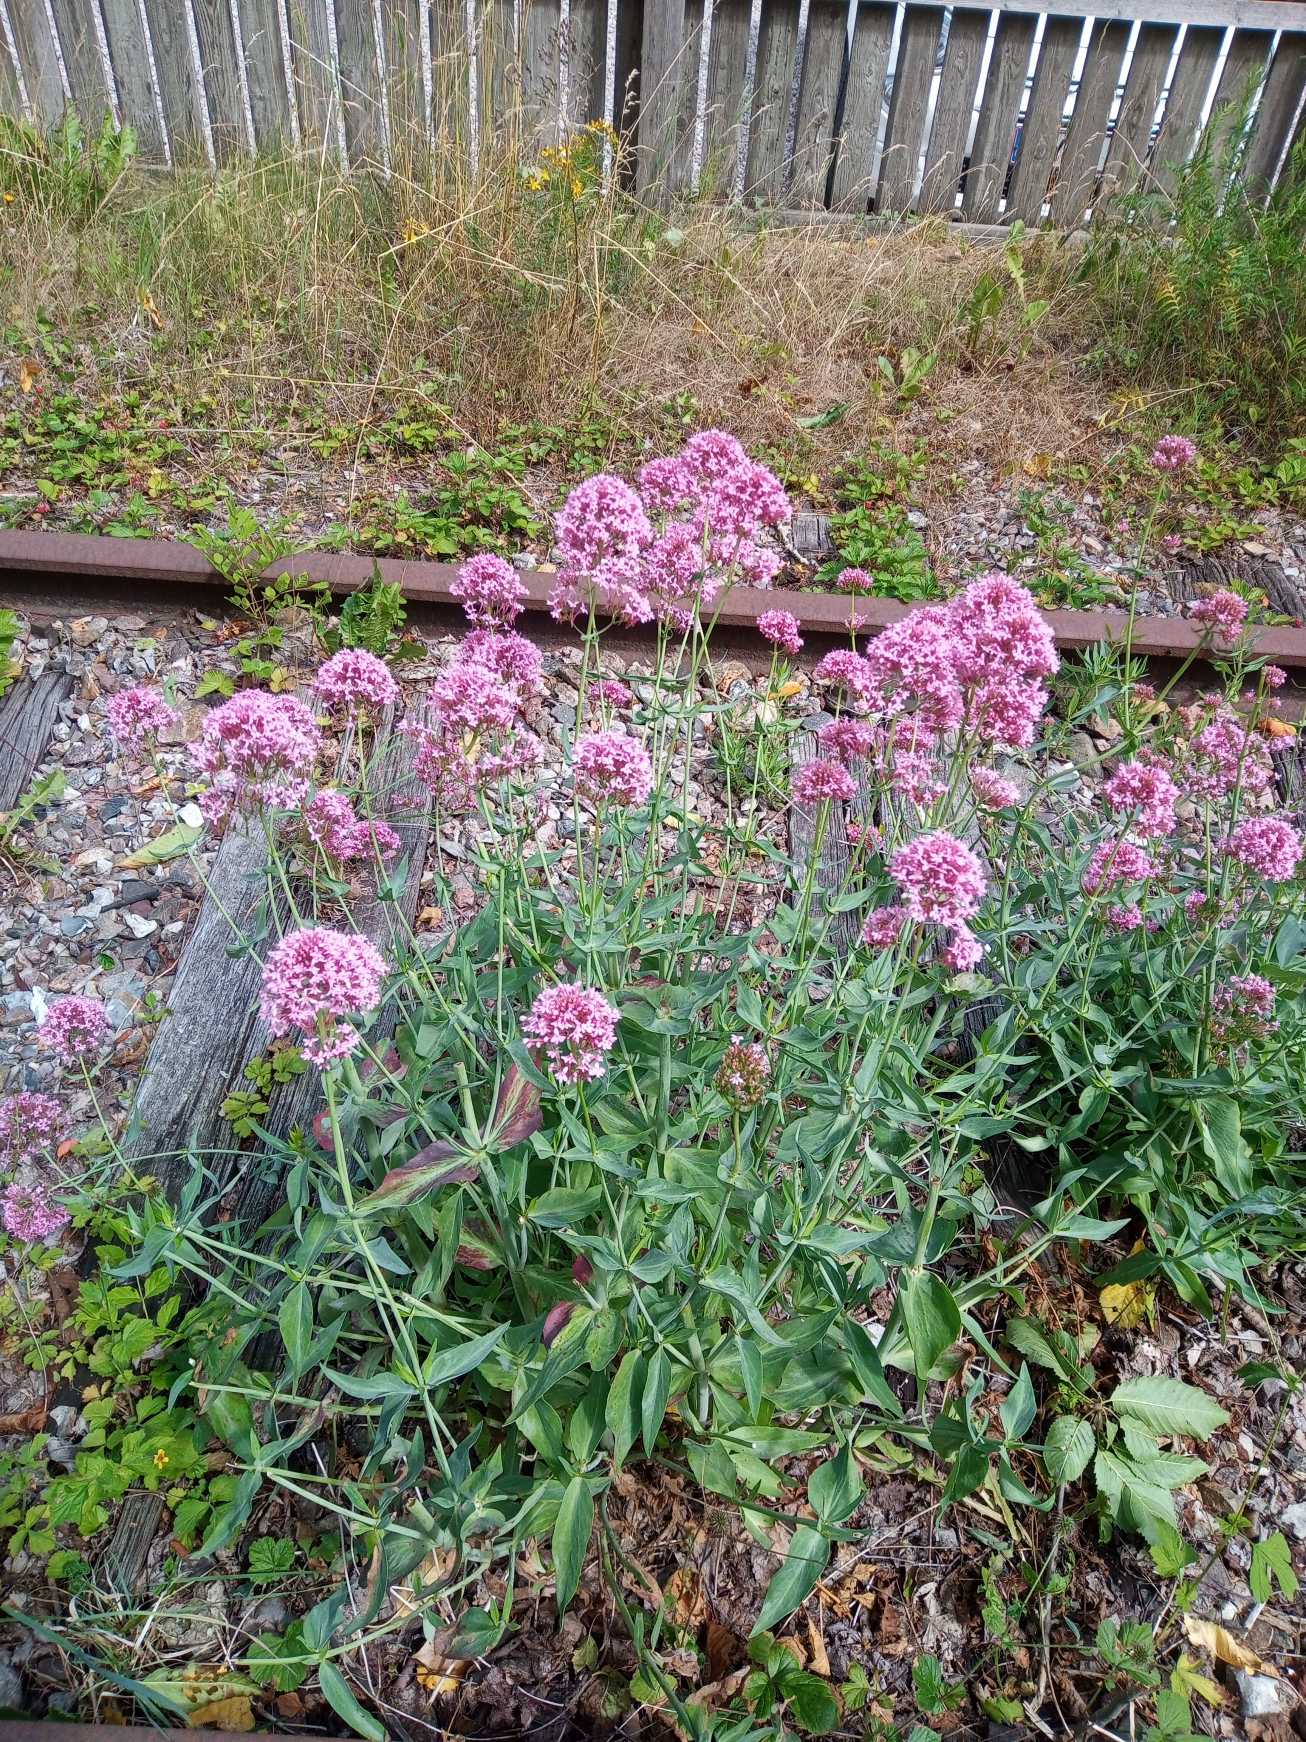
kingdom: Plantae
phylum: Tracheophyta
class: Magnoliopsida
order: Dipsacales
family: Caprifoliaceae
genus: Centranthus
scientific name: Centranthus ruber
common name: Sporebaldrian
